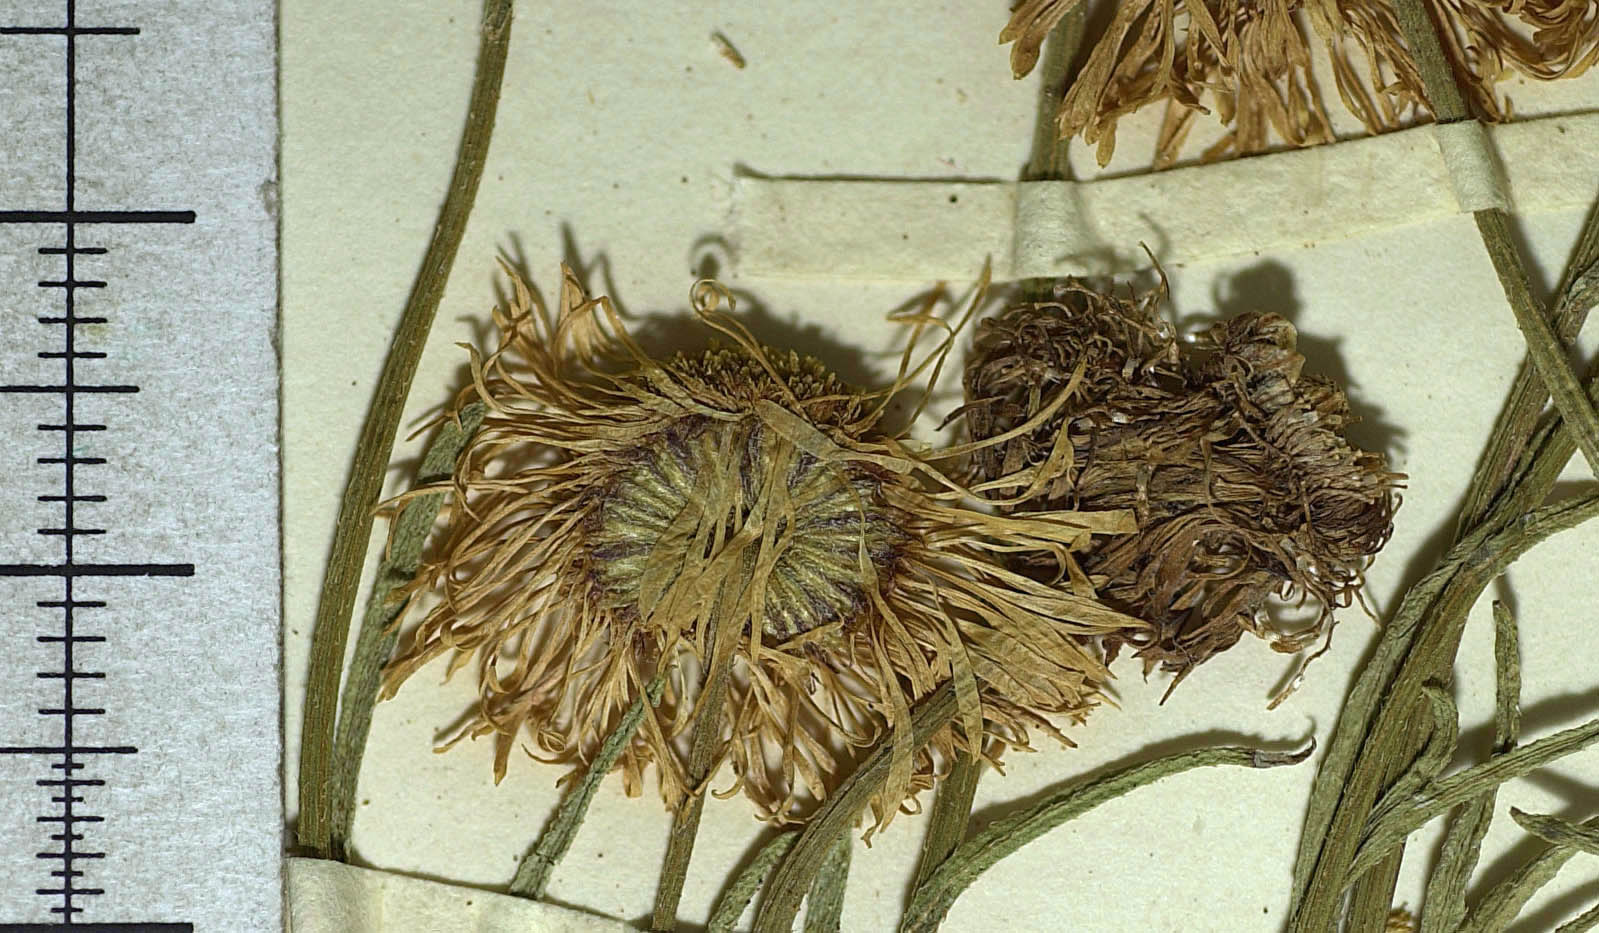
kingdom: Plantae
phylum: Tracheophyta
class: Magnoliopsida
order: Asterales
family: Asteraceae
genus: Archaetogeron
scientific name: Archaetogeron
